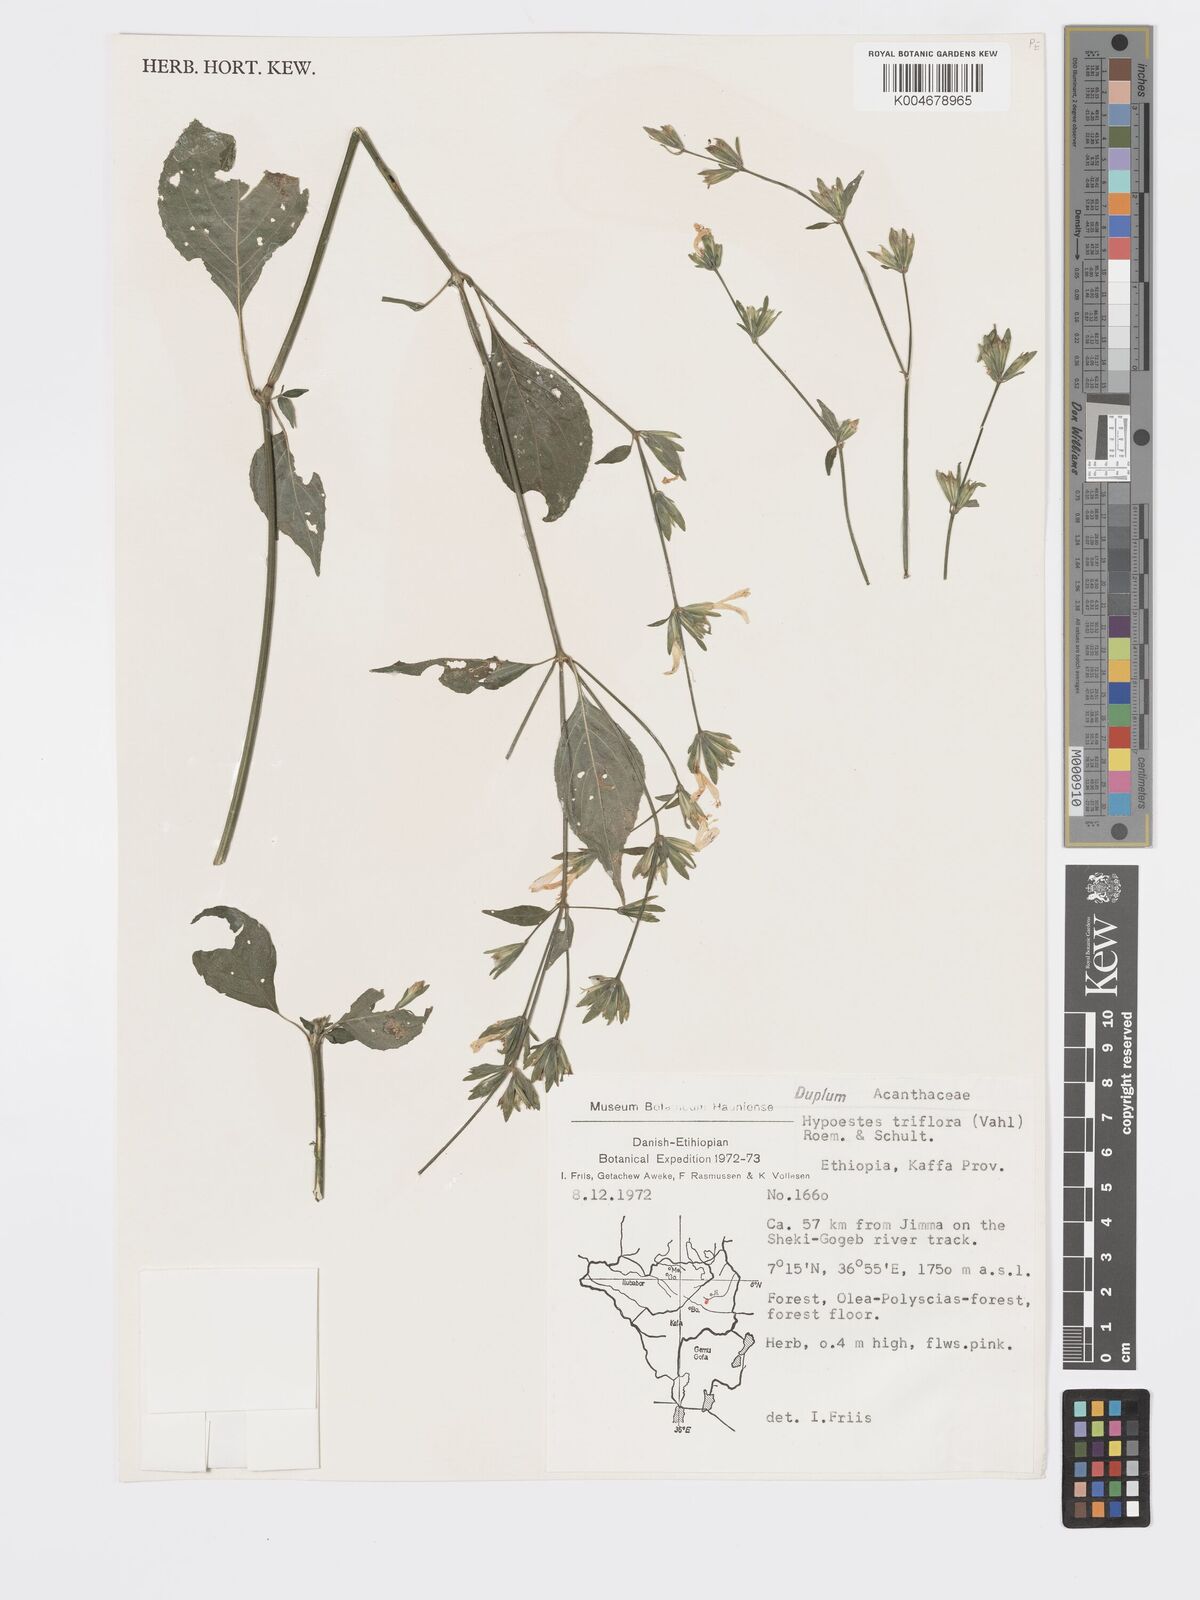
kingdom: Plantae
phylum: Tracheophyta
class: Magnoliopsida
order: Lamiales
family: Acanthaceae
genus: Hypoestes
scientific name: Hypoestes triflora
